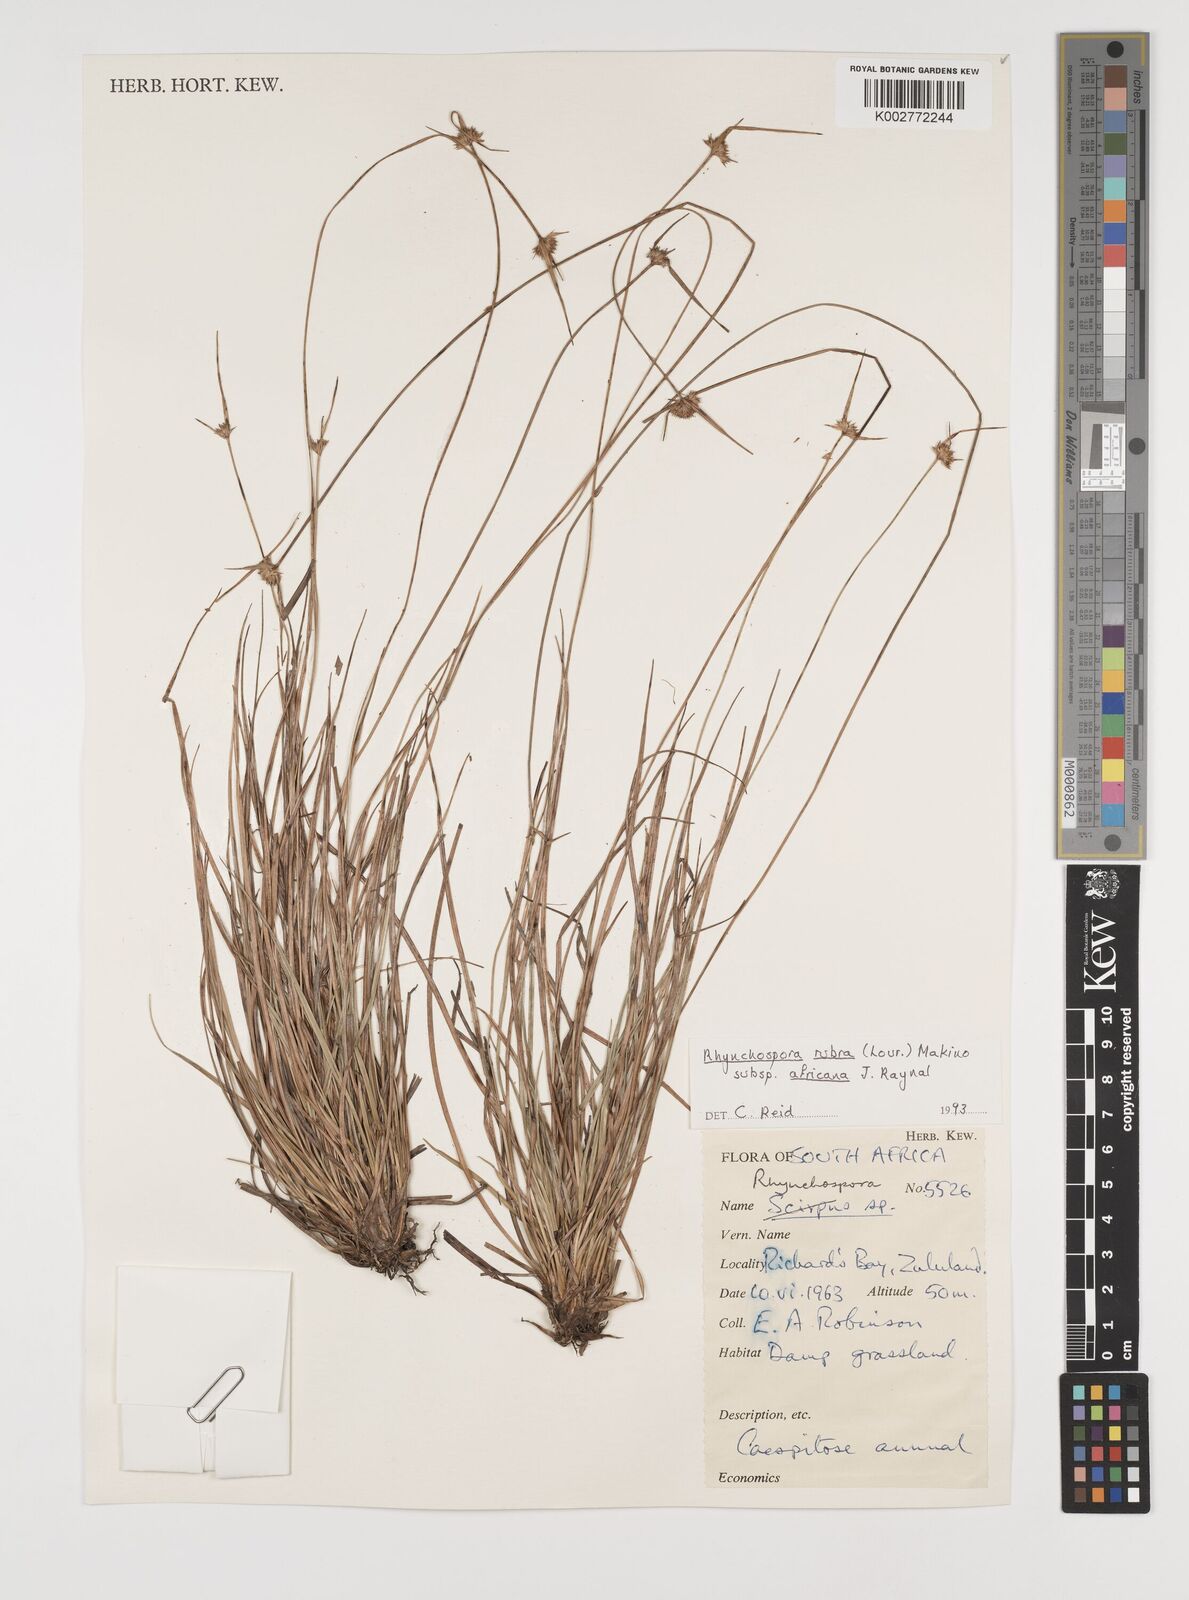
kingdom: Plantae
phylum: Tracheophyta
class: Liliopsida
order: Poales
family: Cyperaceae
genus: Rhynchospora
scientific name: Rhynchospora rubra
